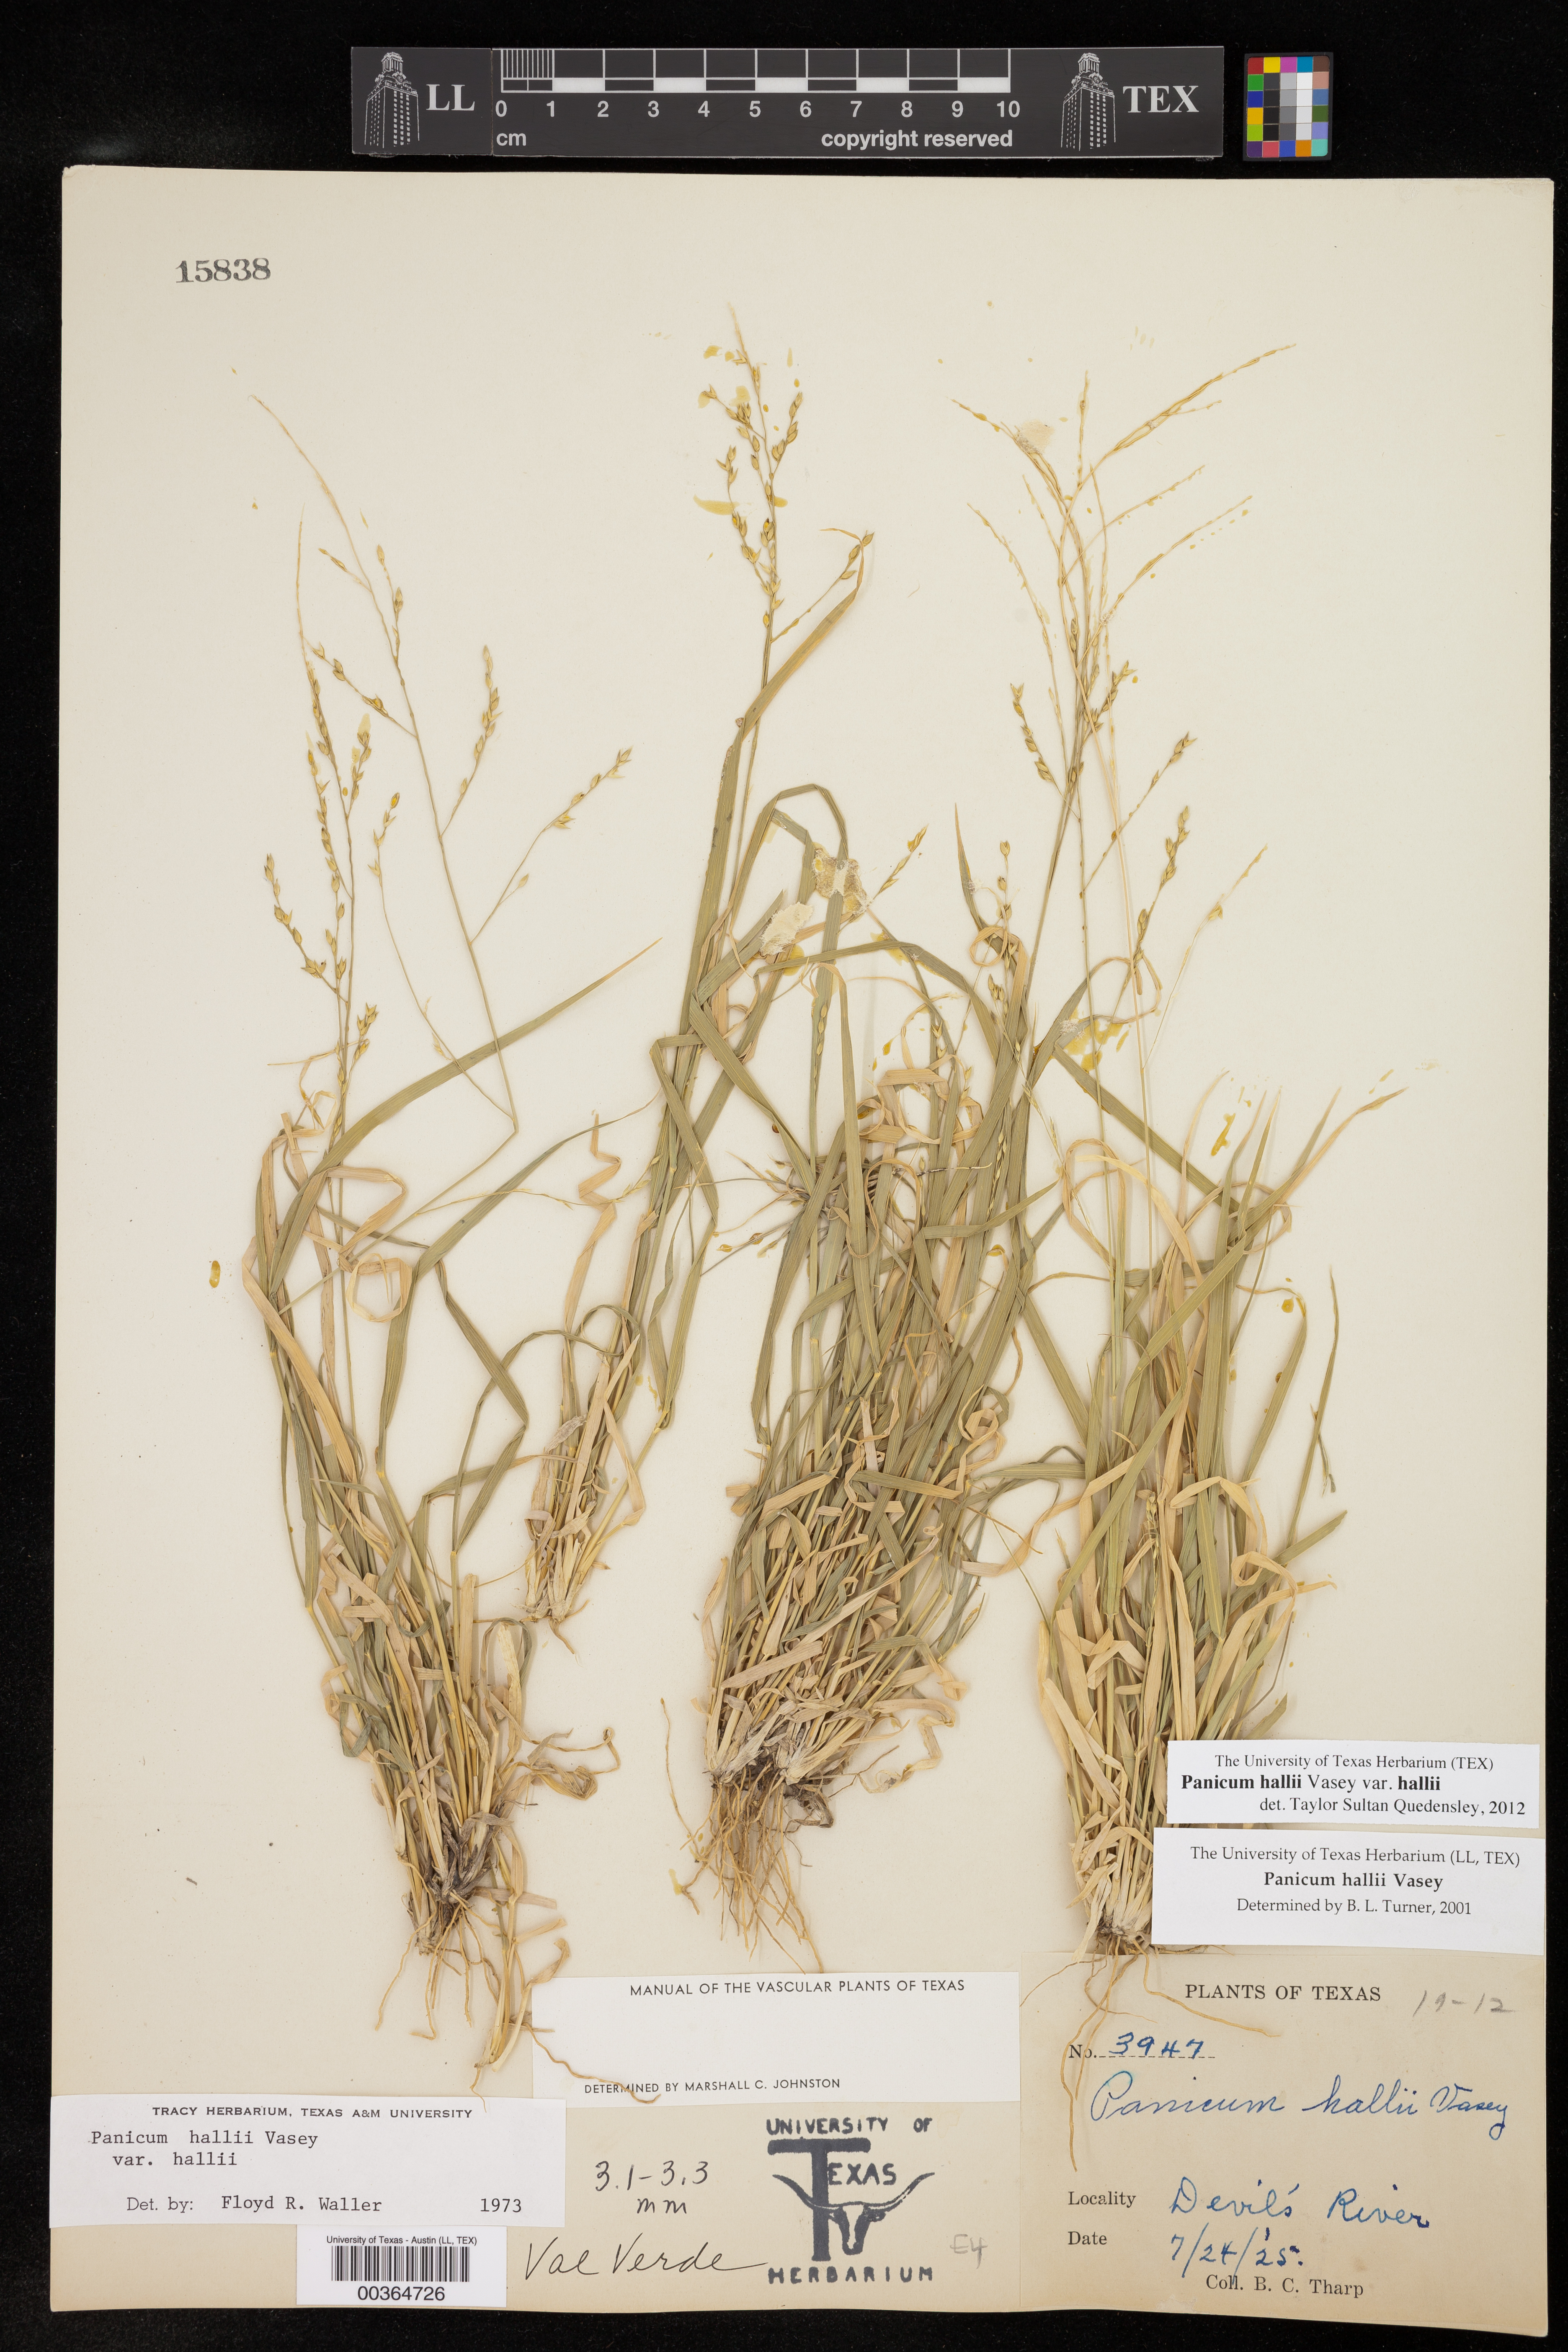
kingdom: Plantae
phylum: Tracheophyta
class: Liliopsida
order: Poales
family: Poaceae
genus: Panicum
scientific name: Panicum hallii
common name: Hall's witchgrass
